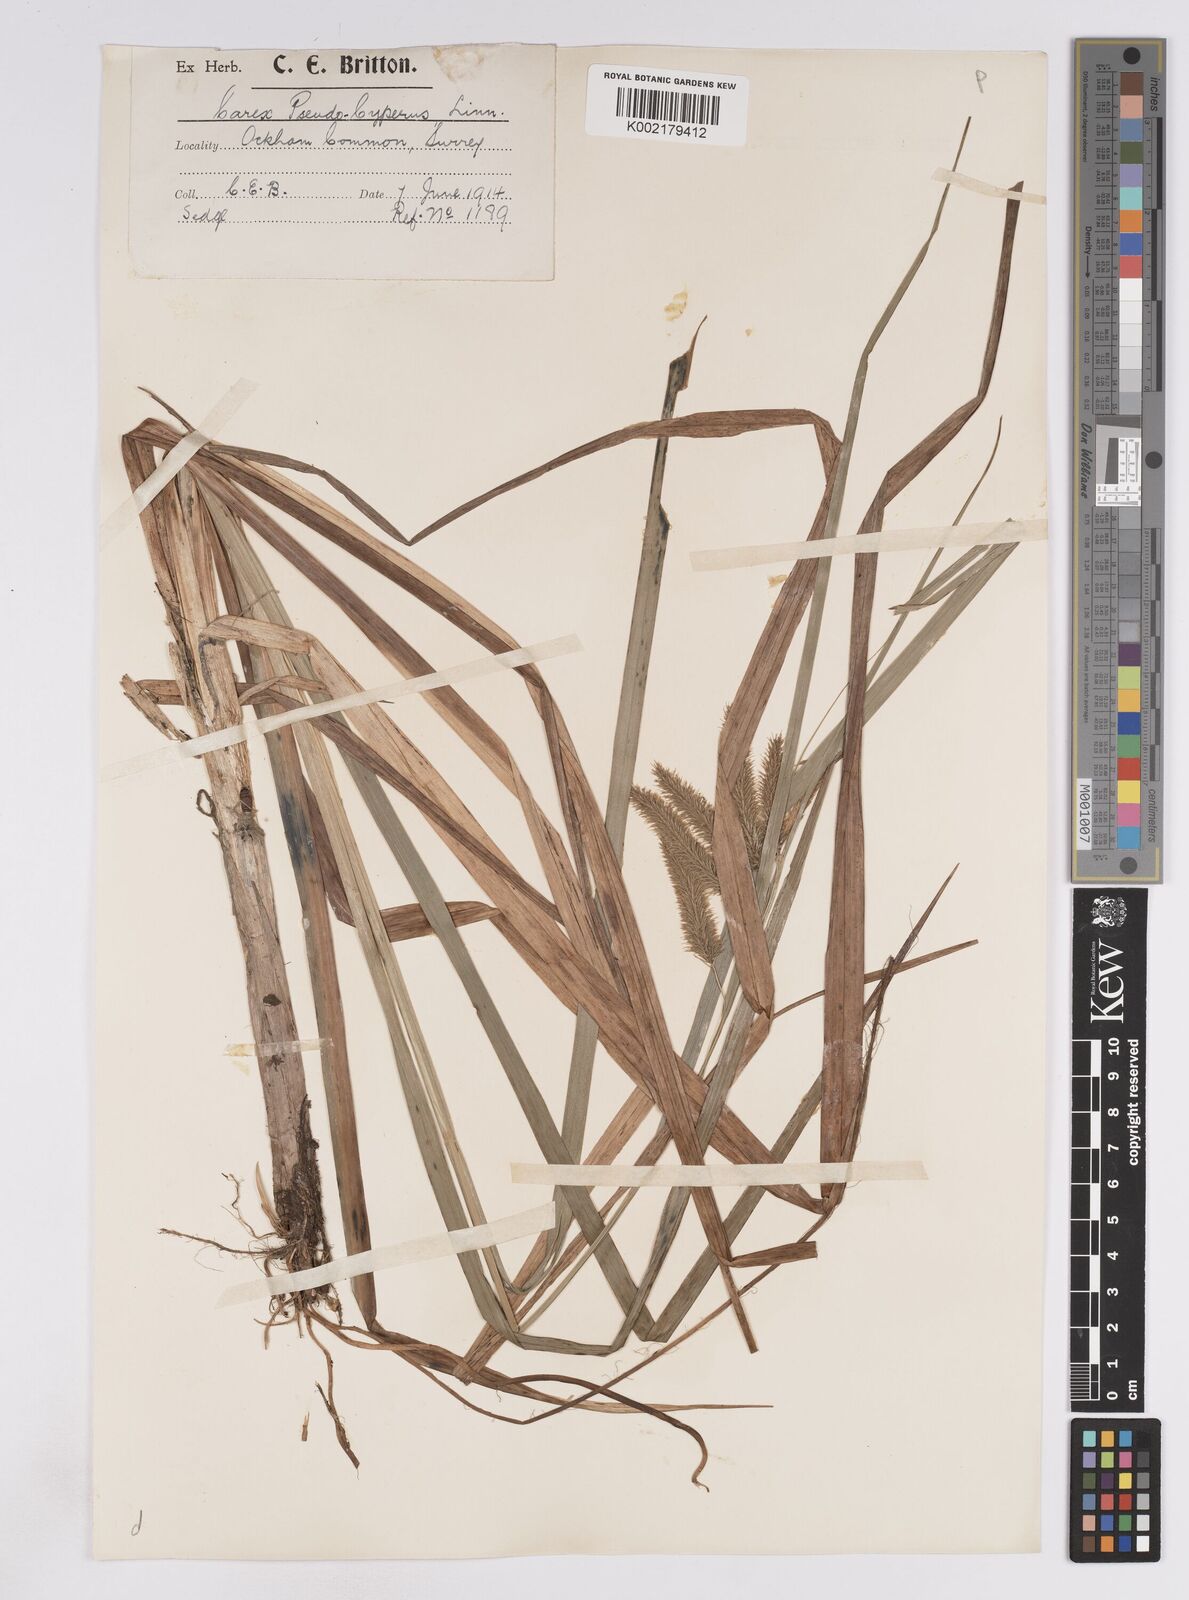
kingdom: Plantae
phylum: Tracheophyta
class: Liliopsida
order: Poales
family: Cyperaceae
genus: Carex
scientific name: Carex pseudocyperus
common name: Cyperus sedge
